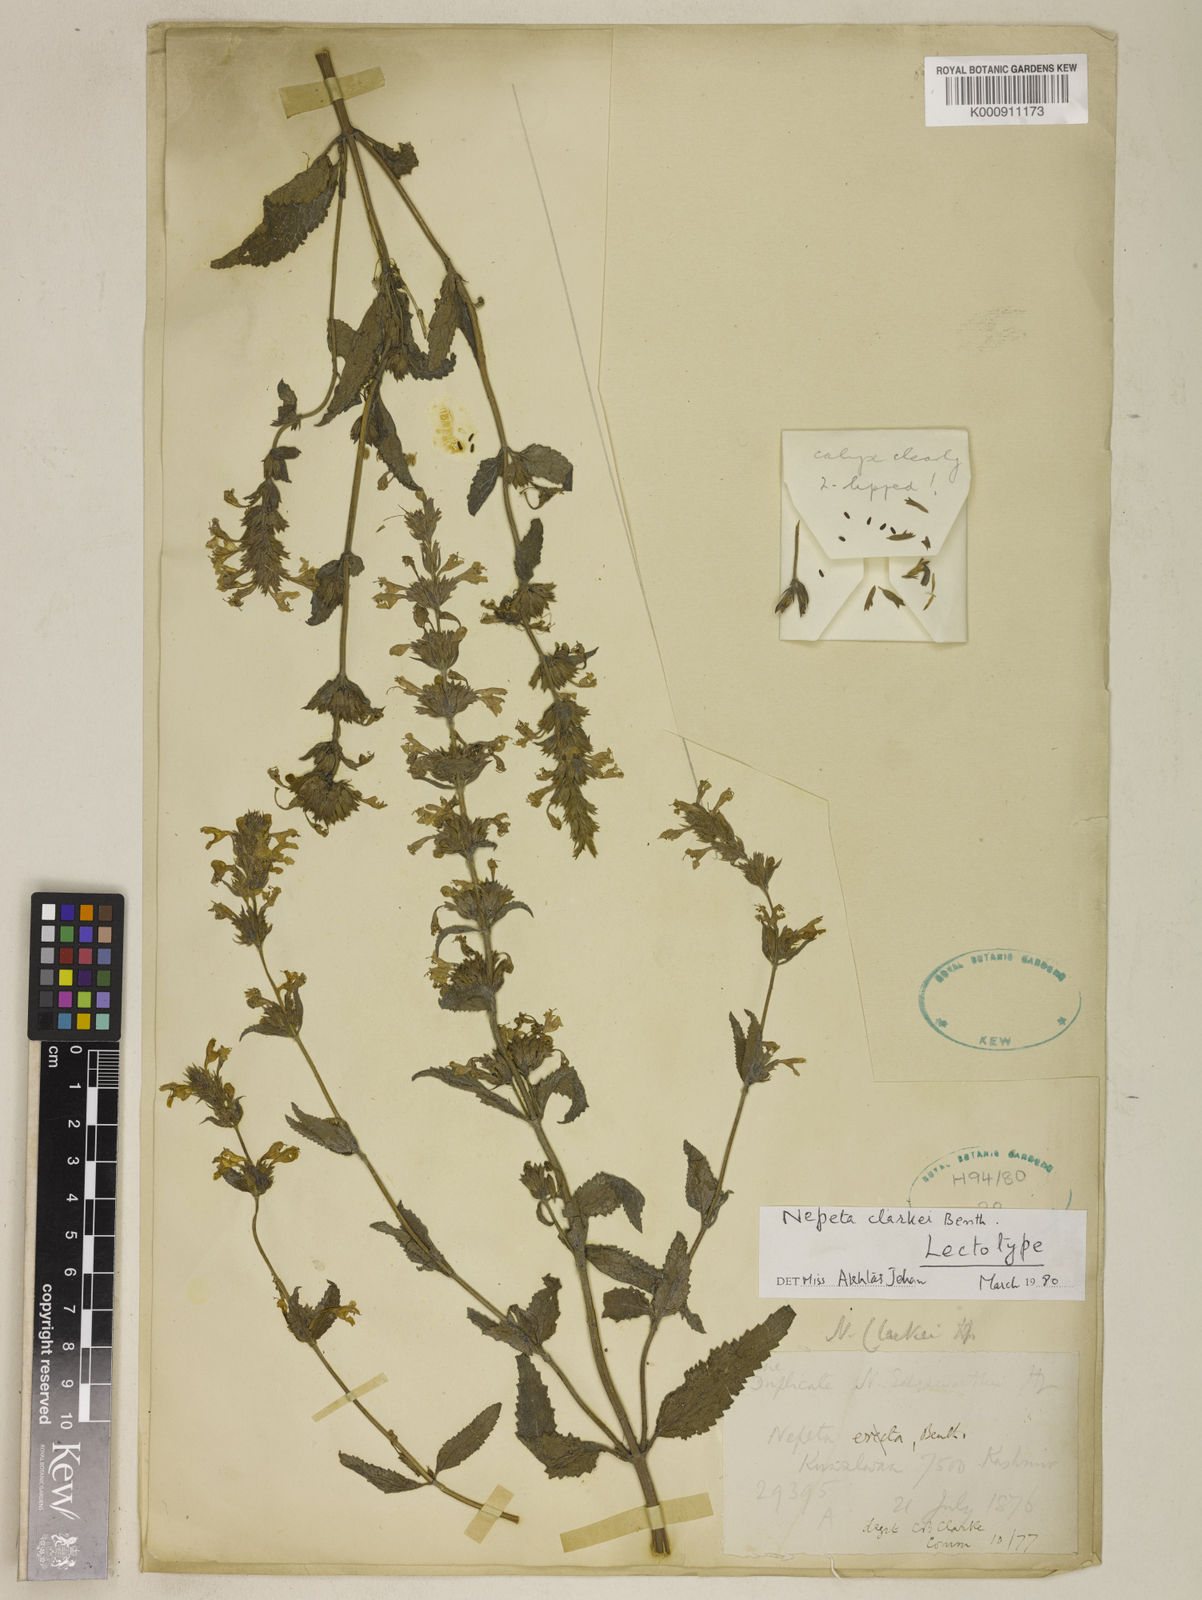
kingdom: Plantae
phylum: Tracheophyta
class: Magnoliopsida
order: Lamiales
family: Lamiaceae
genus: Nepeta
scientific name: Nepeta
